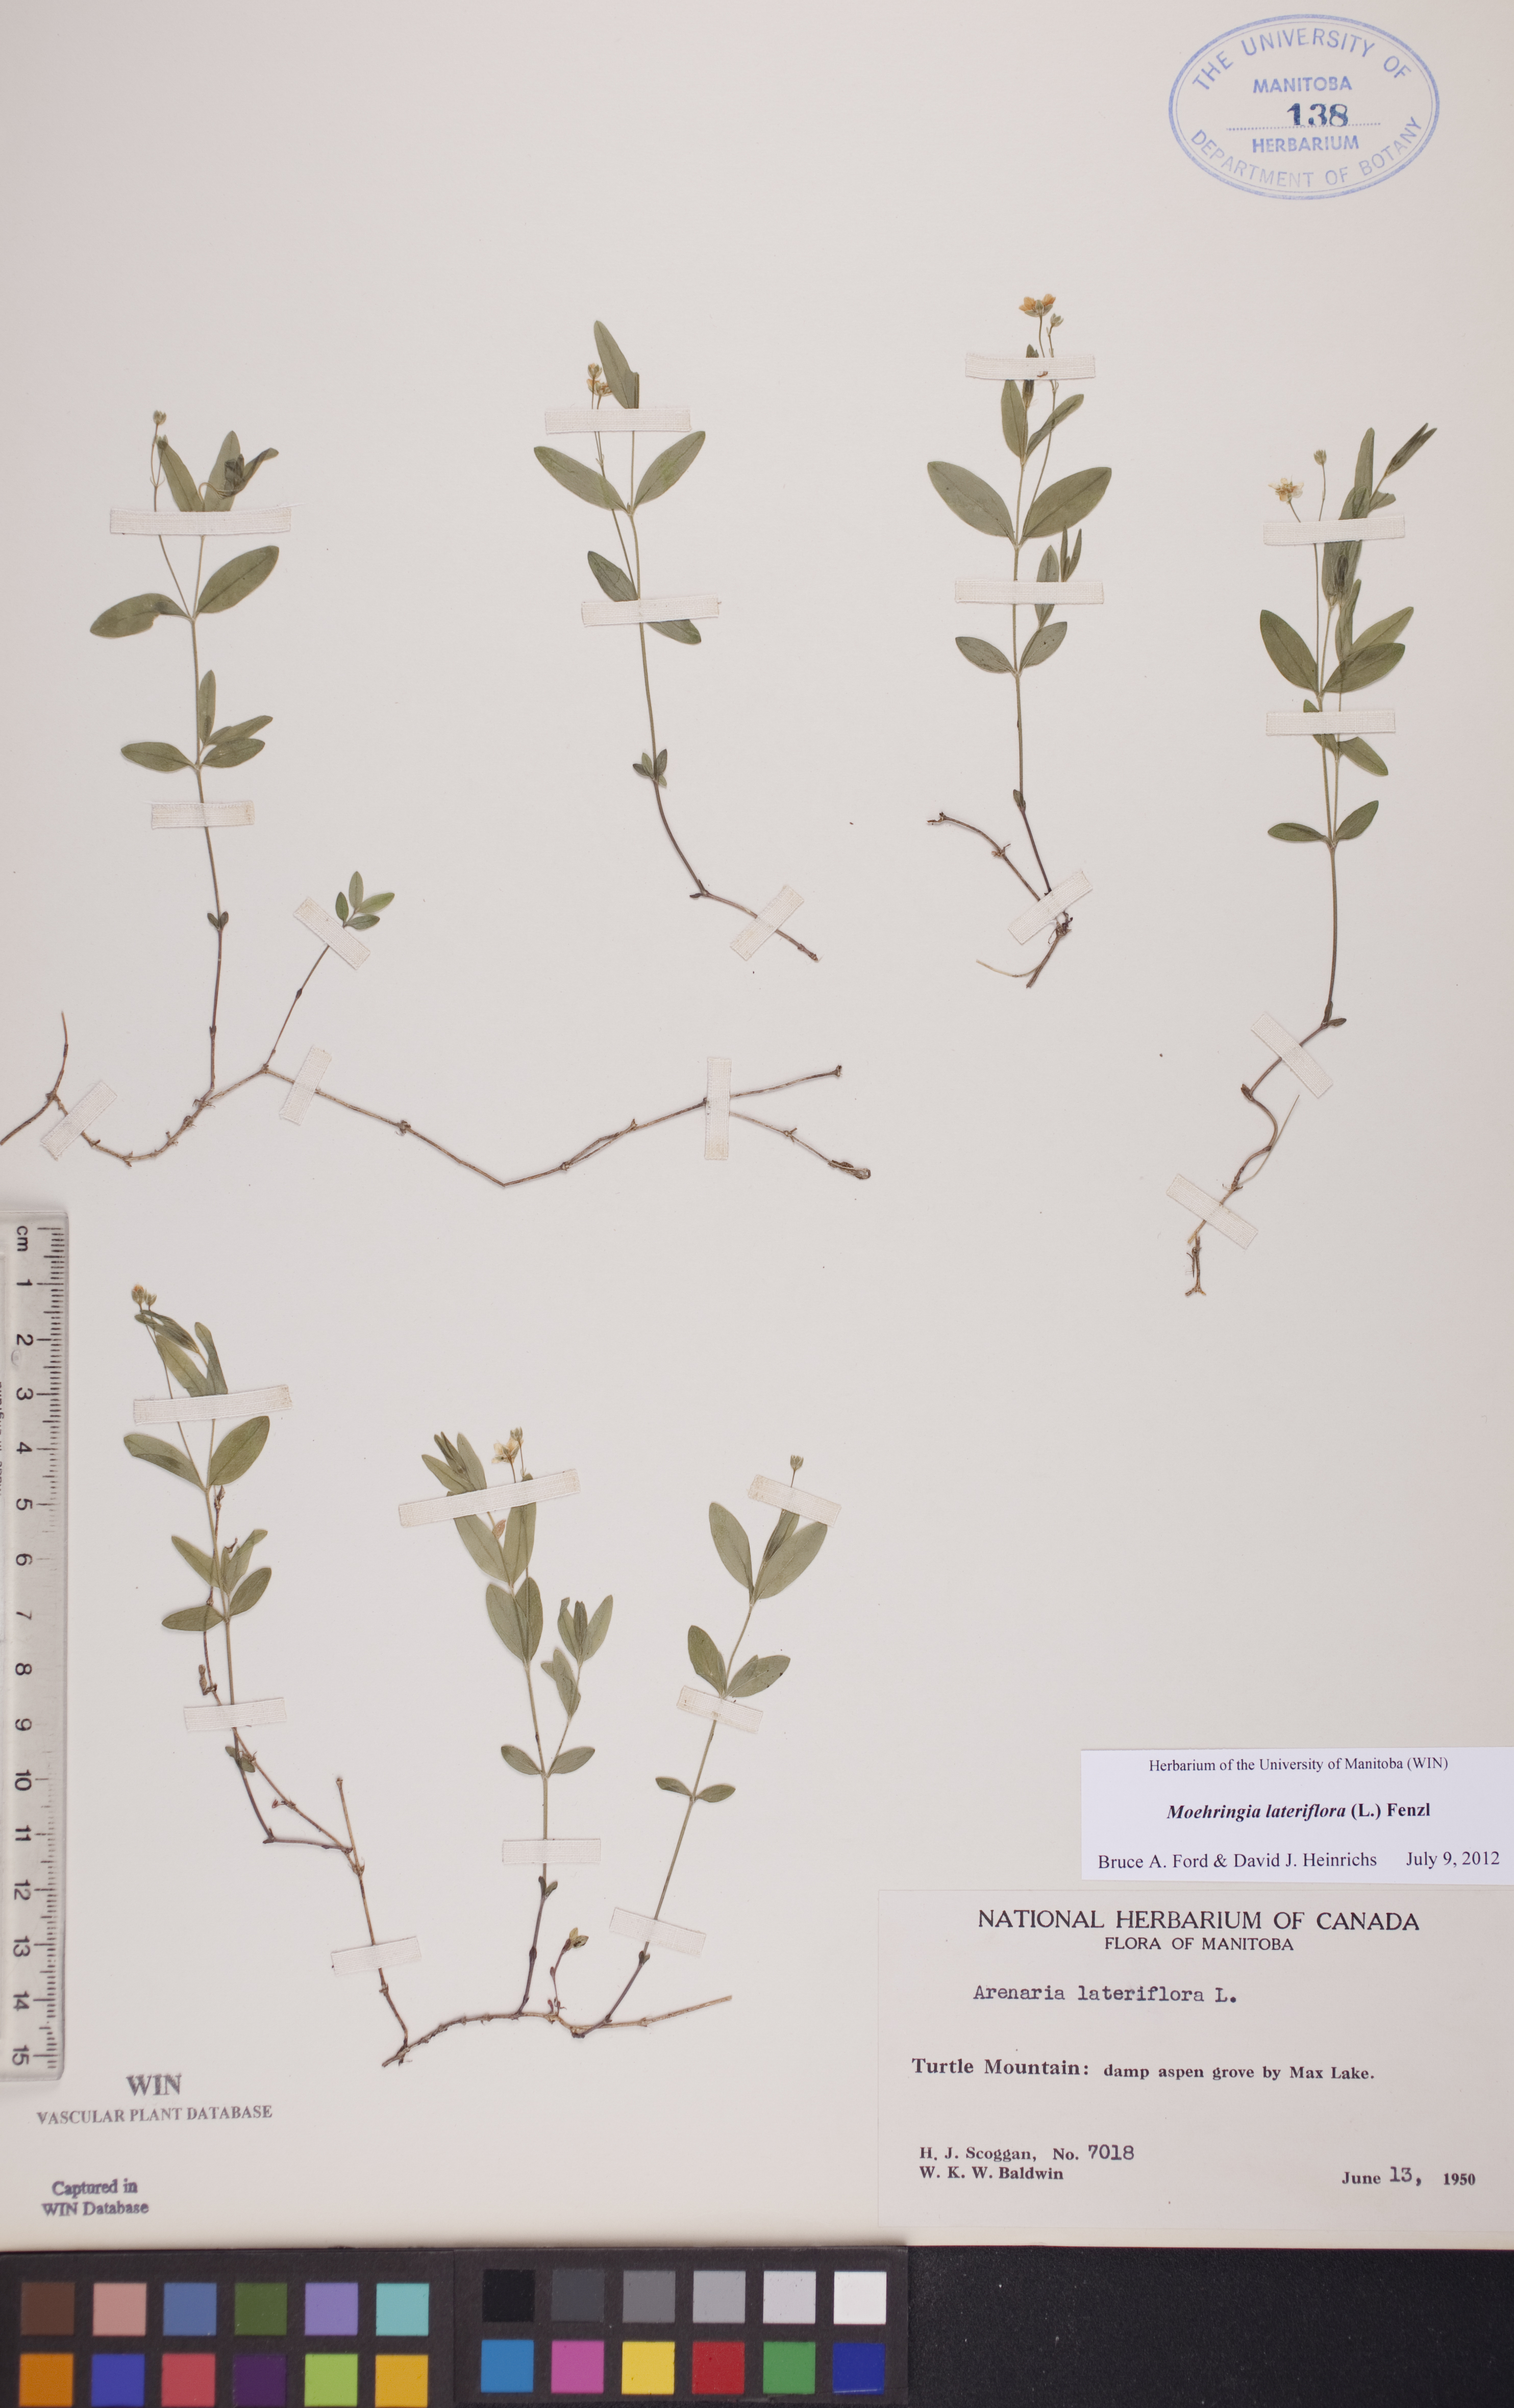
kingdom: Plantae
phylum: Tracheophyta
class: Magnoliopsida
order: Caryophyllales
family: Caryophyllaceae
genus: Moehringia
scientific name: Moehringia lateriflora
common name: Blunt-leaved sandwort
